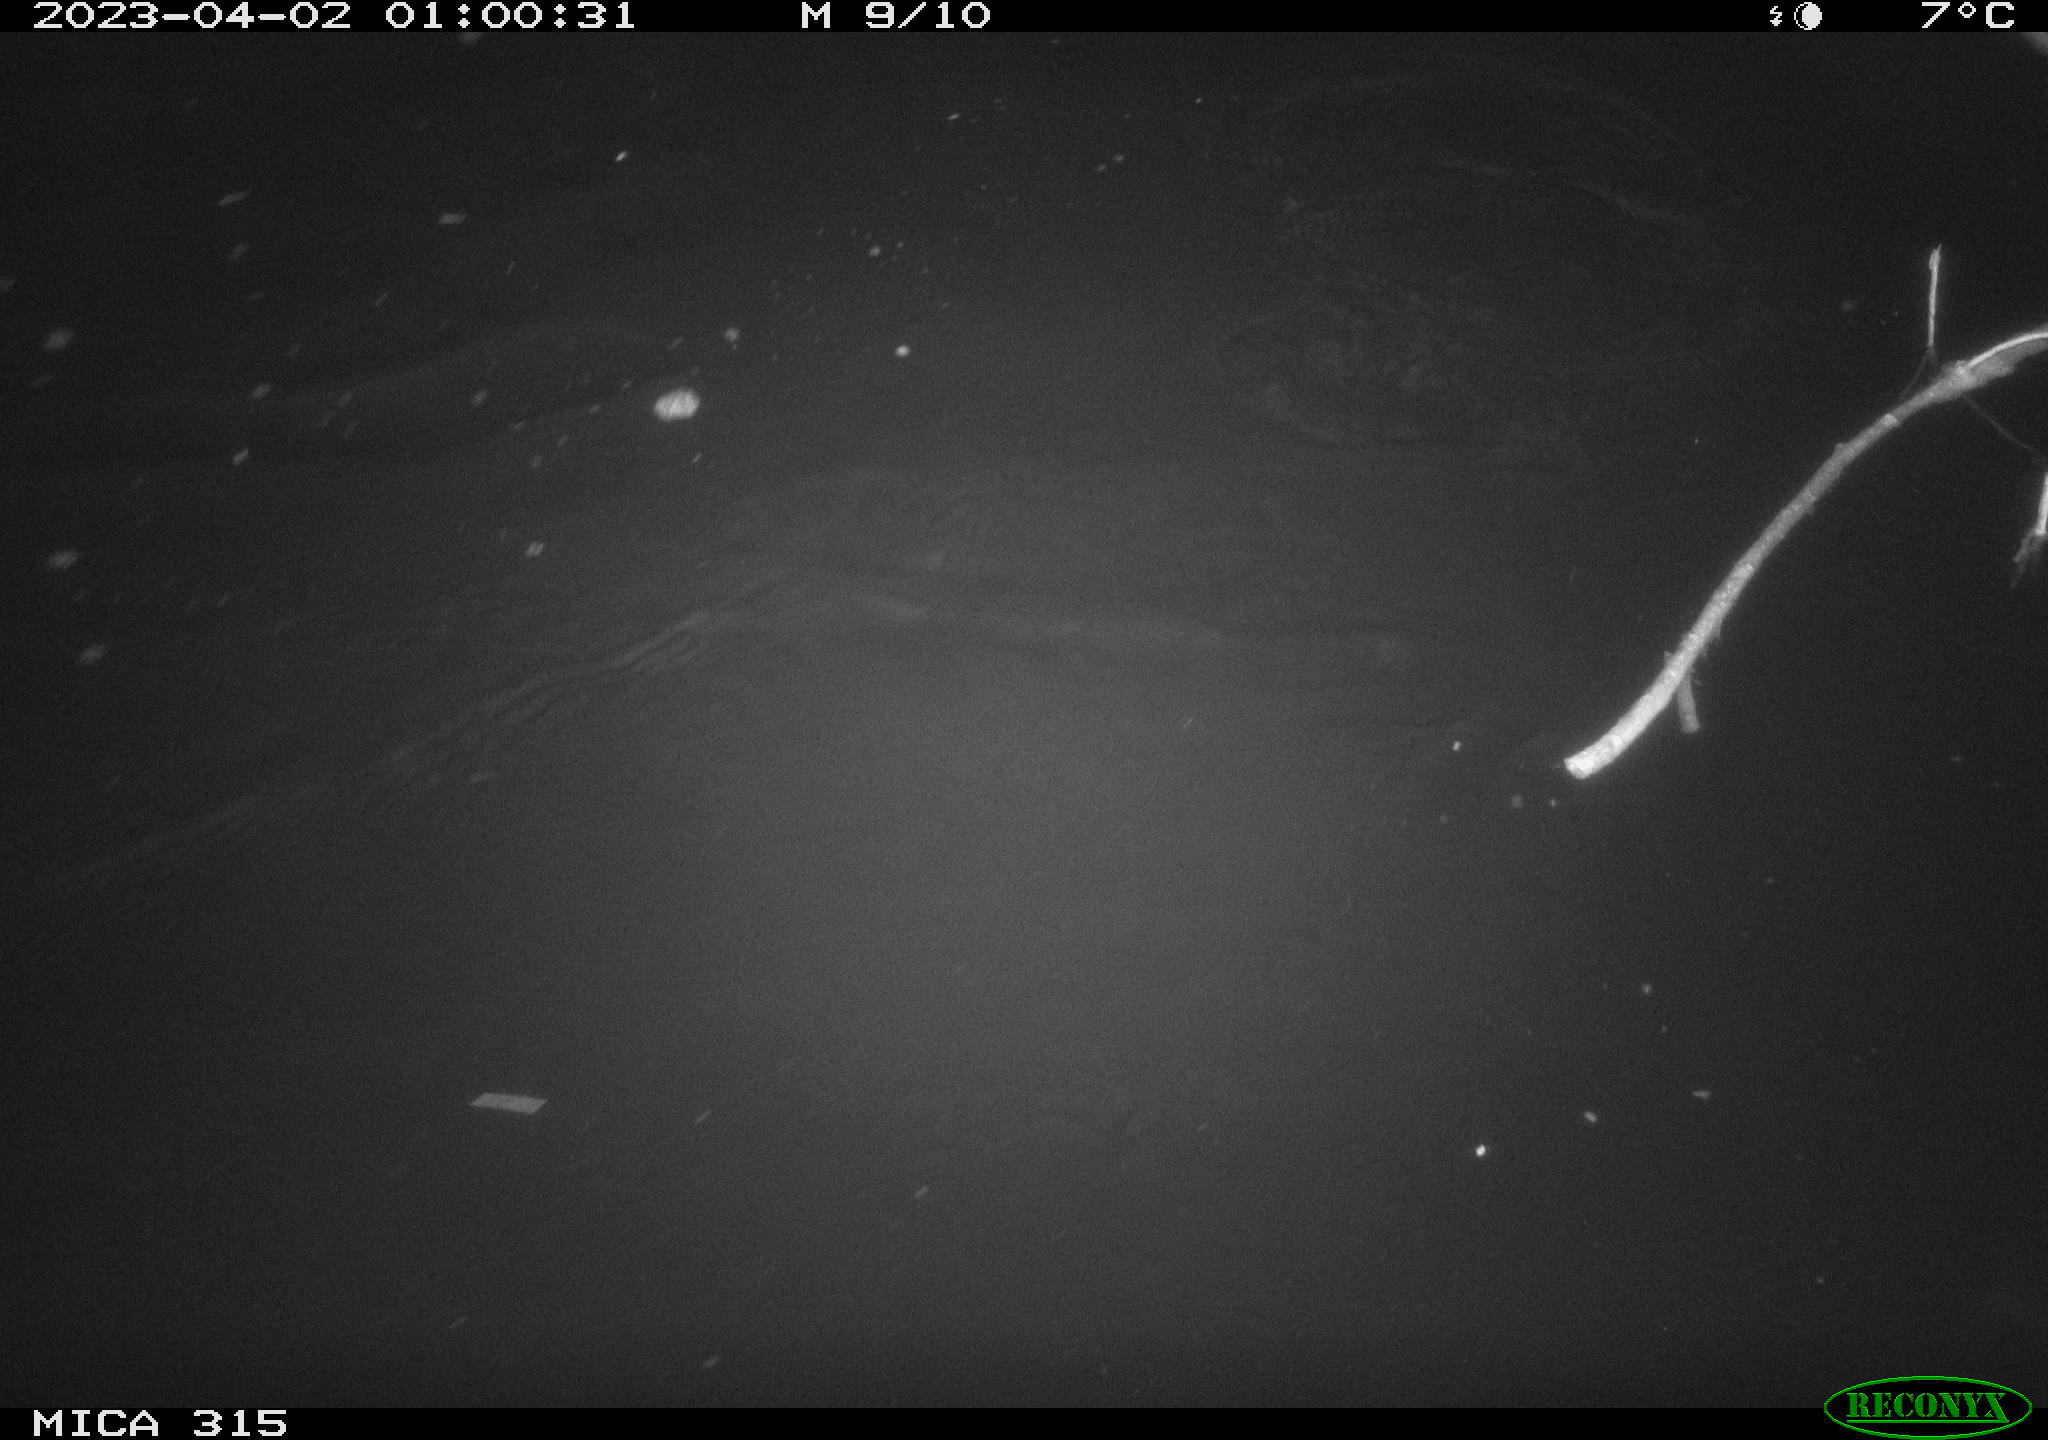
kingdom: Animalia
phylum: Chordata
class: Aves
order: Anseriformes
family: Anatidae
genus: Anas
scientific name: Anas
